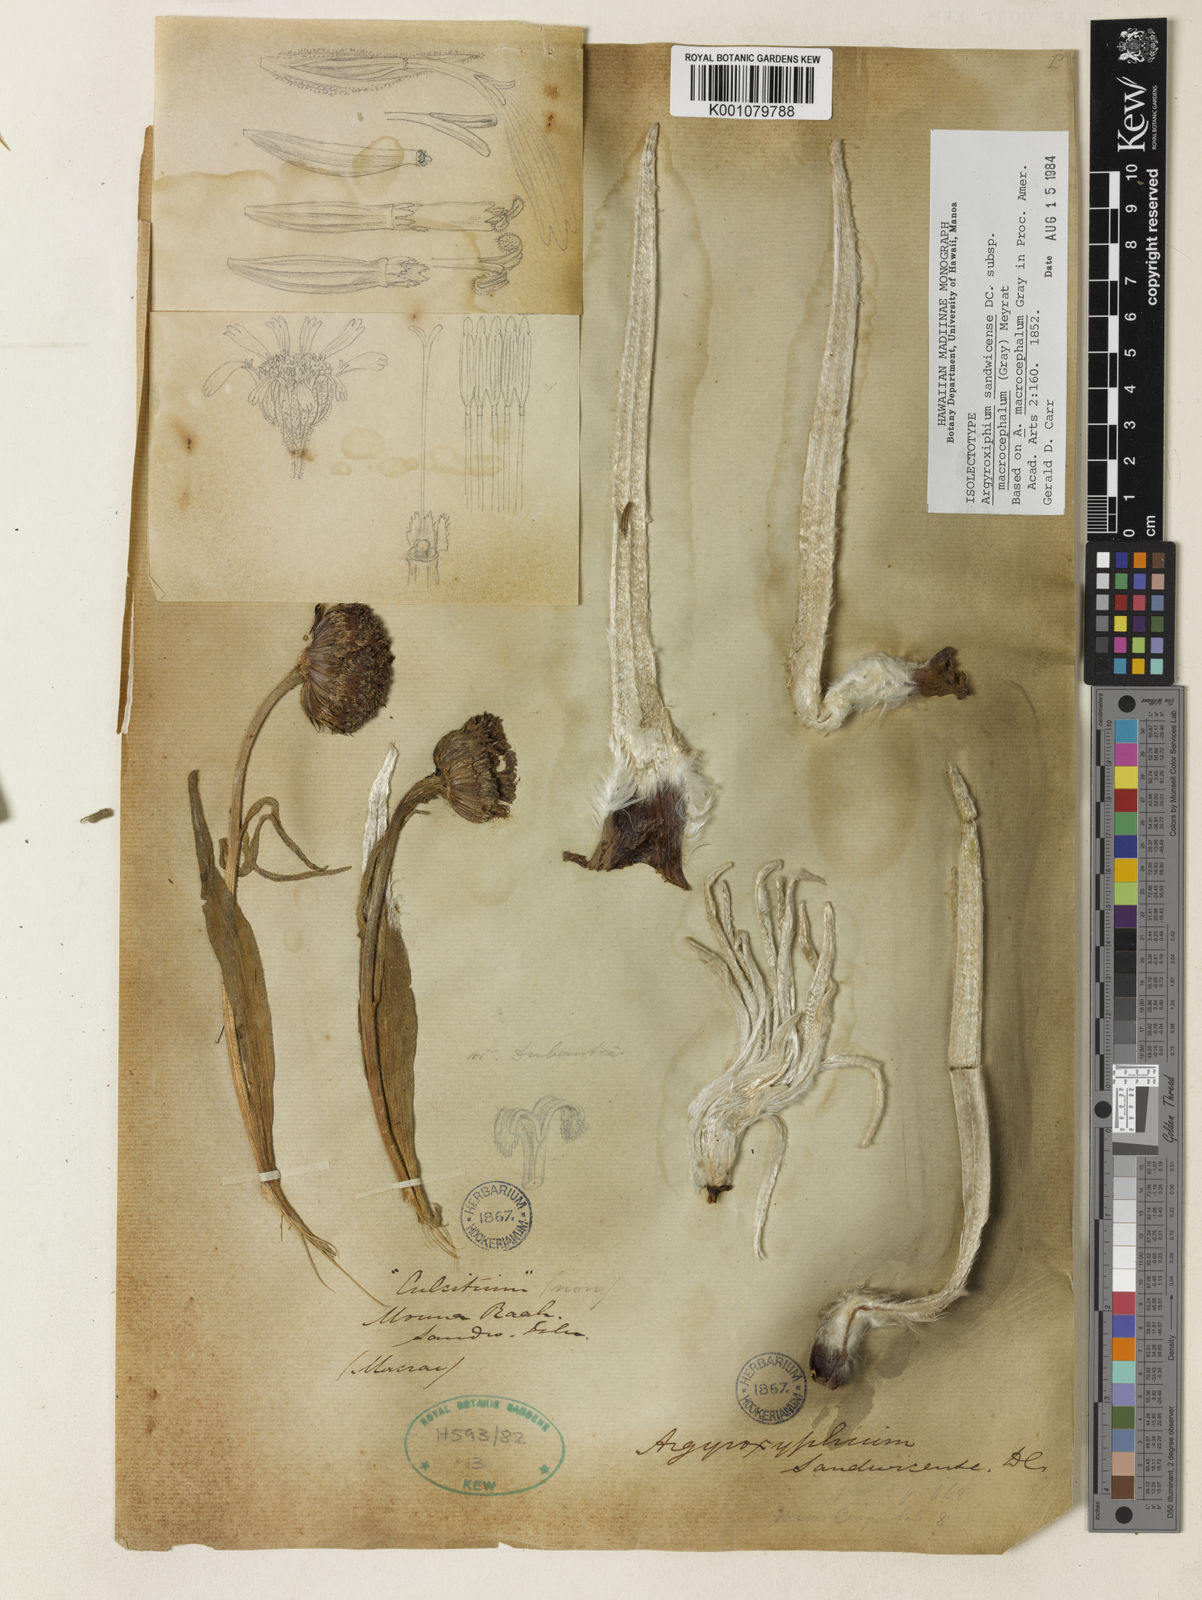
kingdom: Plantae
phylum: Tracheophyta
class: Magnoliopsida
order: Asterales
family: Asteraceae
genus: Argyroxiphium
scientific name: Argyroxiphium sandwicense
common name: Silversword
